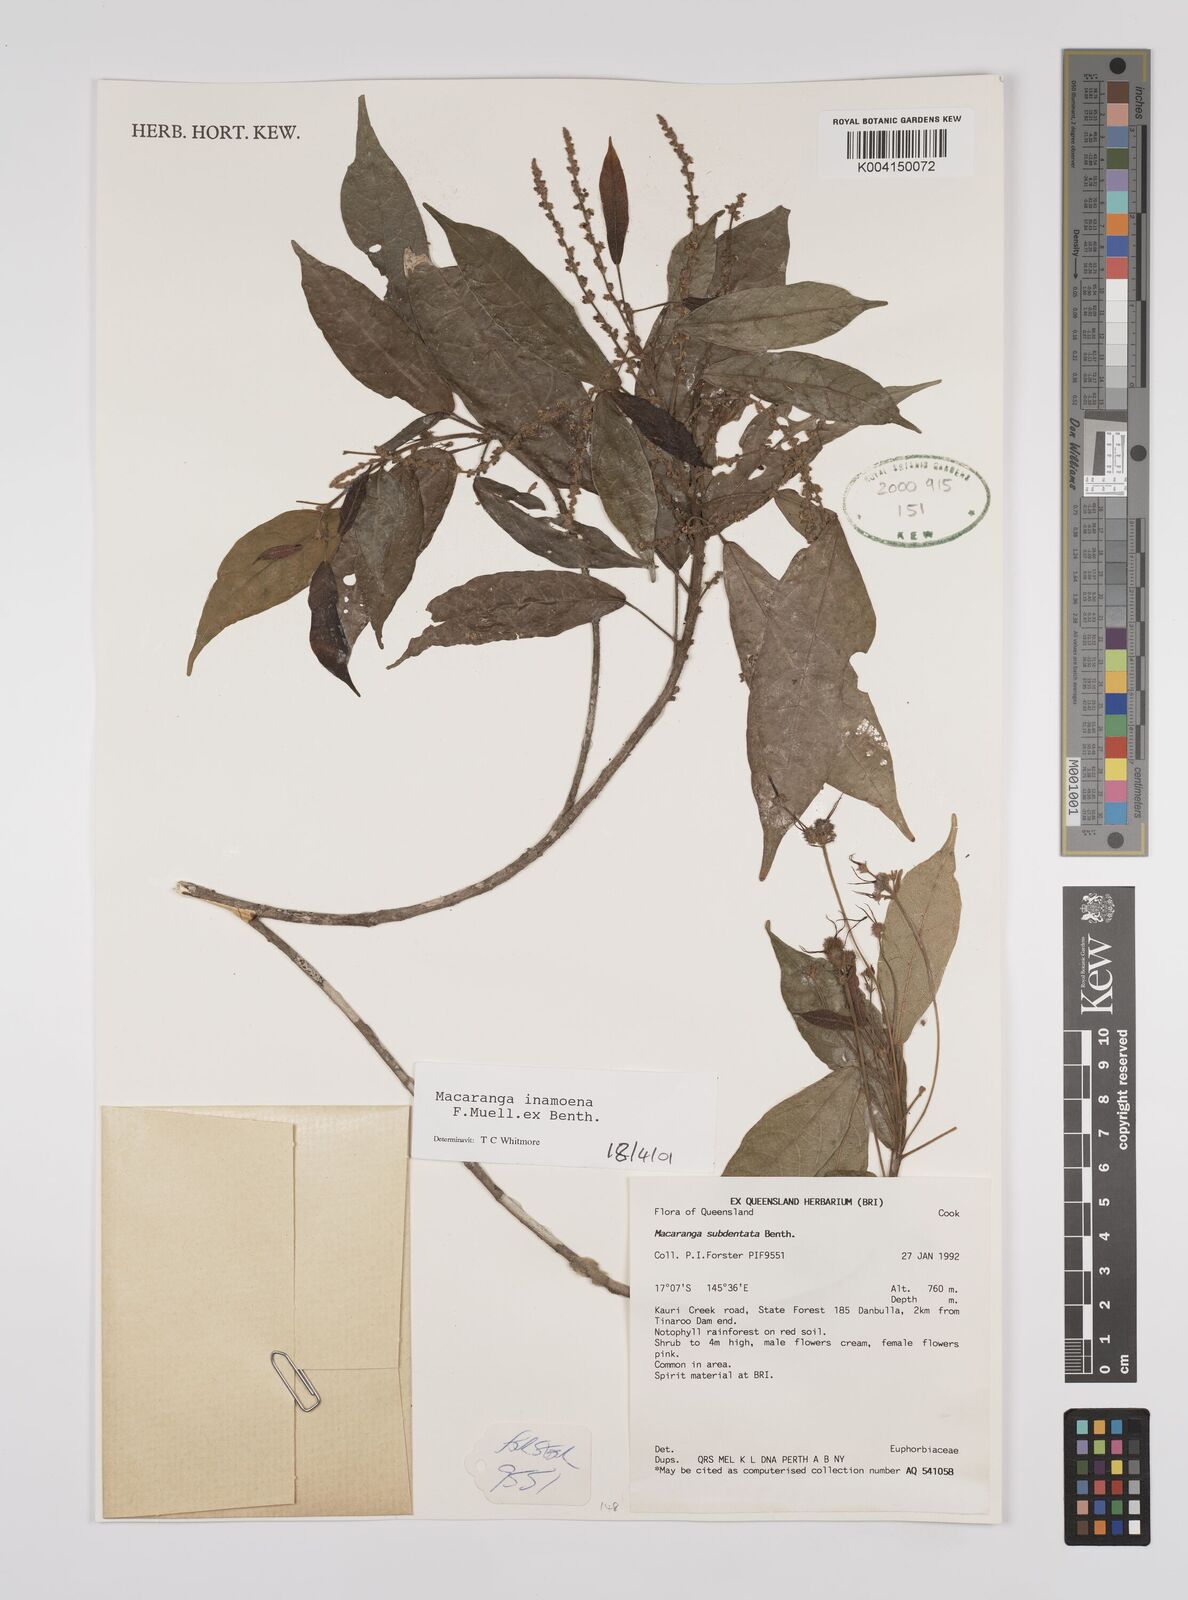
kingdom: Plantae
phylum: Tracheophyta
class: Magnoliopsida
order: Malpighiales
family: Euphorbiaceae
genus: Macaranga
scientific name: Macaranga inamoena
